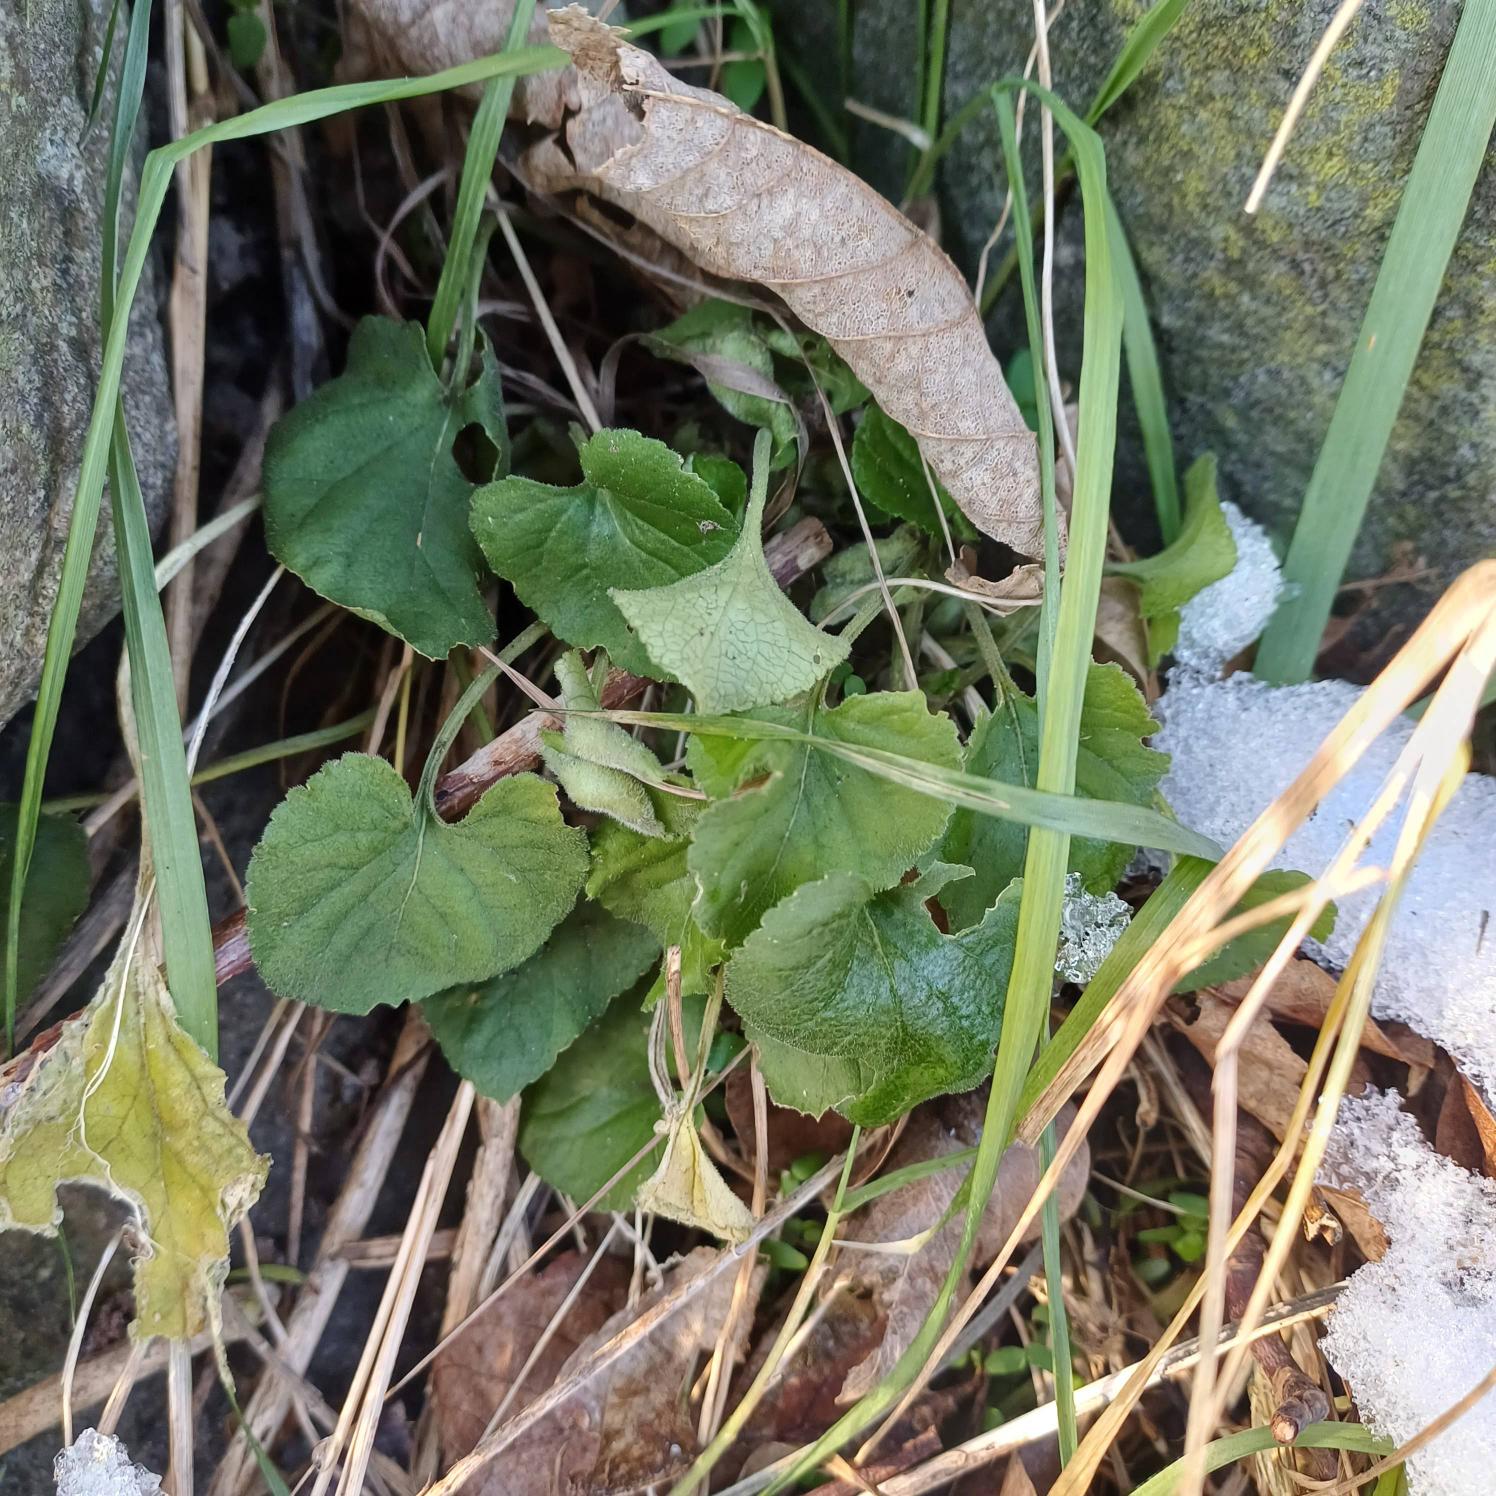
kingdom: Plantae
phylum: Tracheophyta
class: Magnoliopsida
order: Malpighiales
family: Violaceae
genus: Viola
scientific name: Viola odorata
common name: Marts-viol
